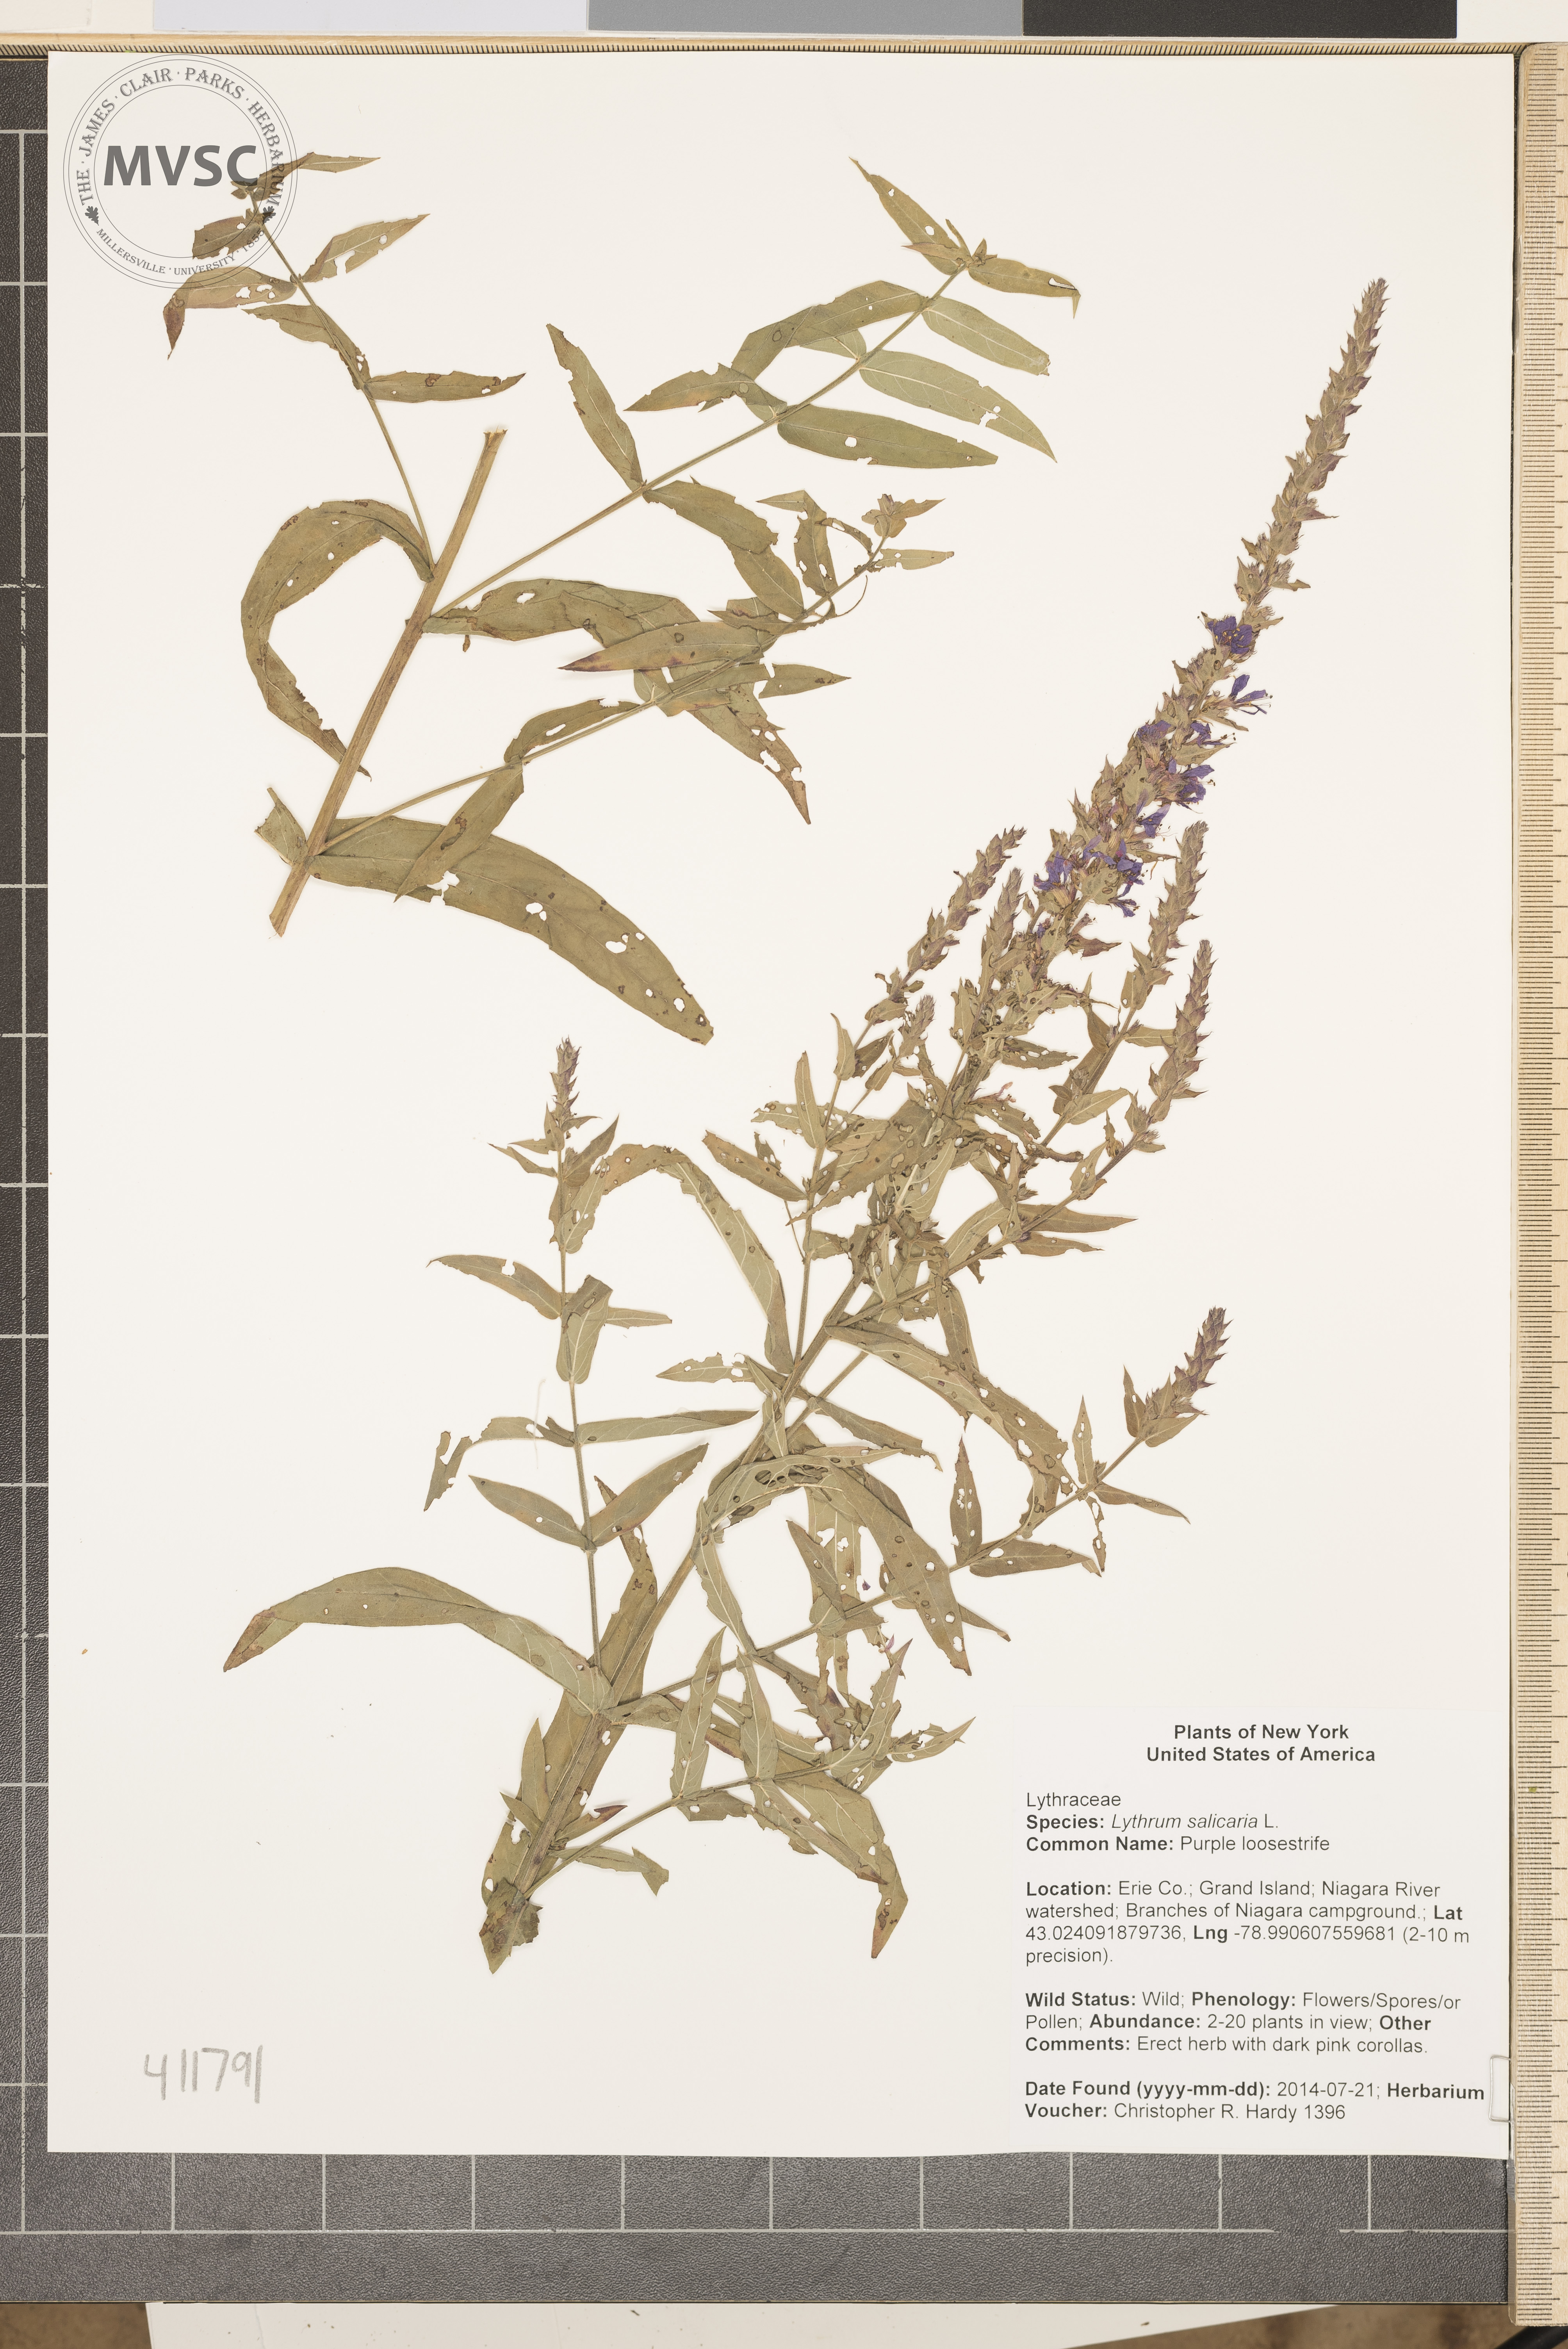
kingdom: Plantae
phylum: Tracheophyta
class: Magnoliopsida
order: Myrtales
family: Lythraceae
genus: Lythrum
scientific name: Lythrum salicaria
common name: Purple loosestrife
